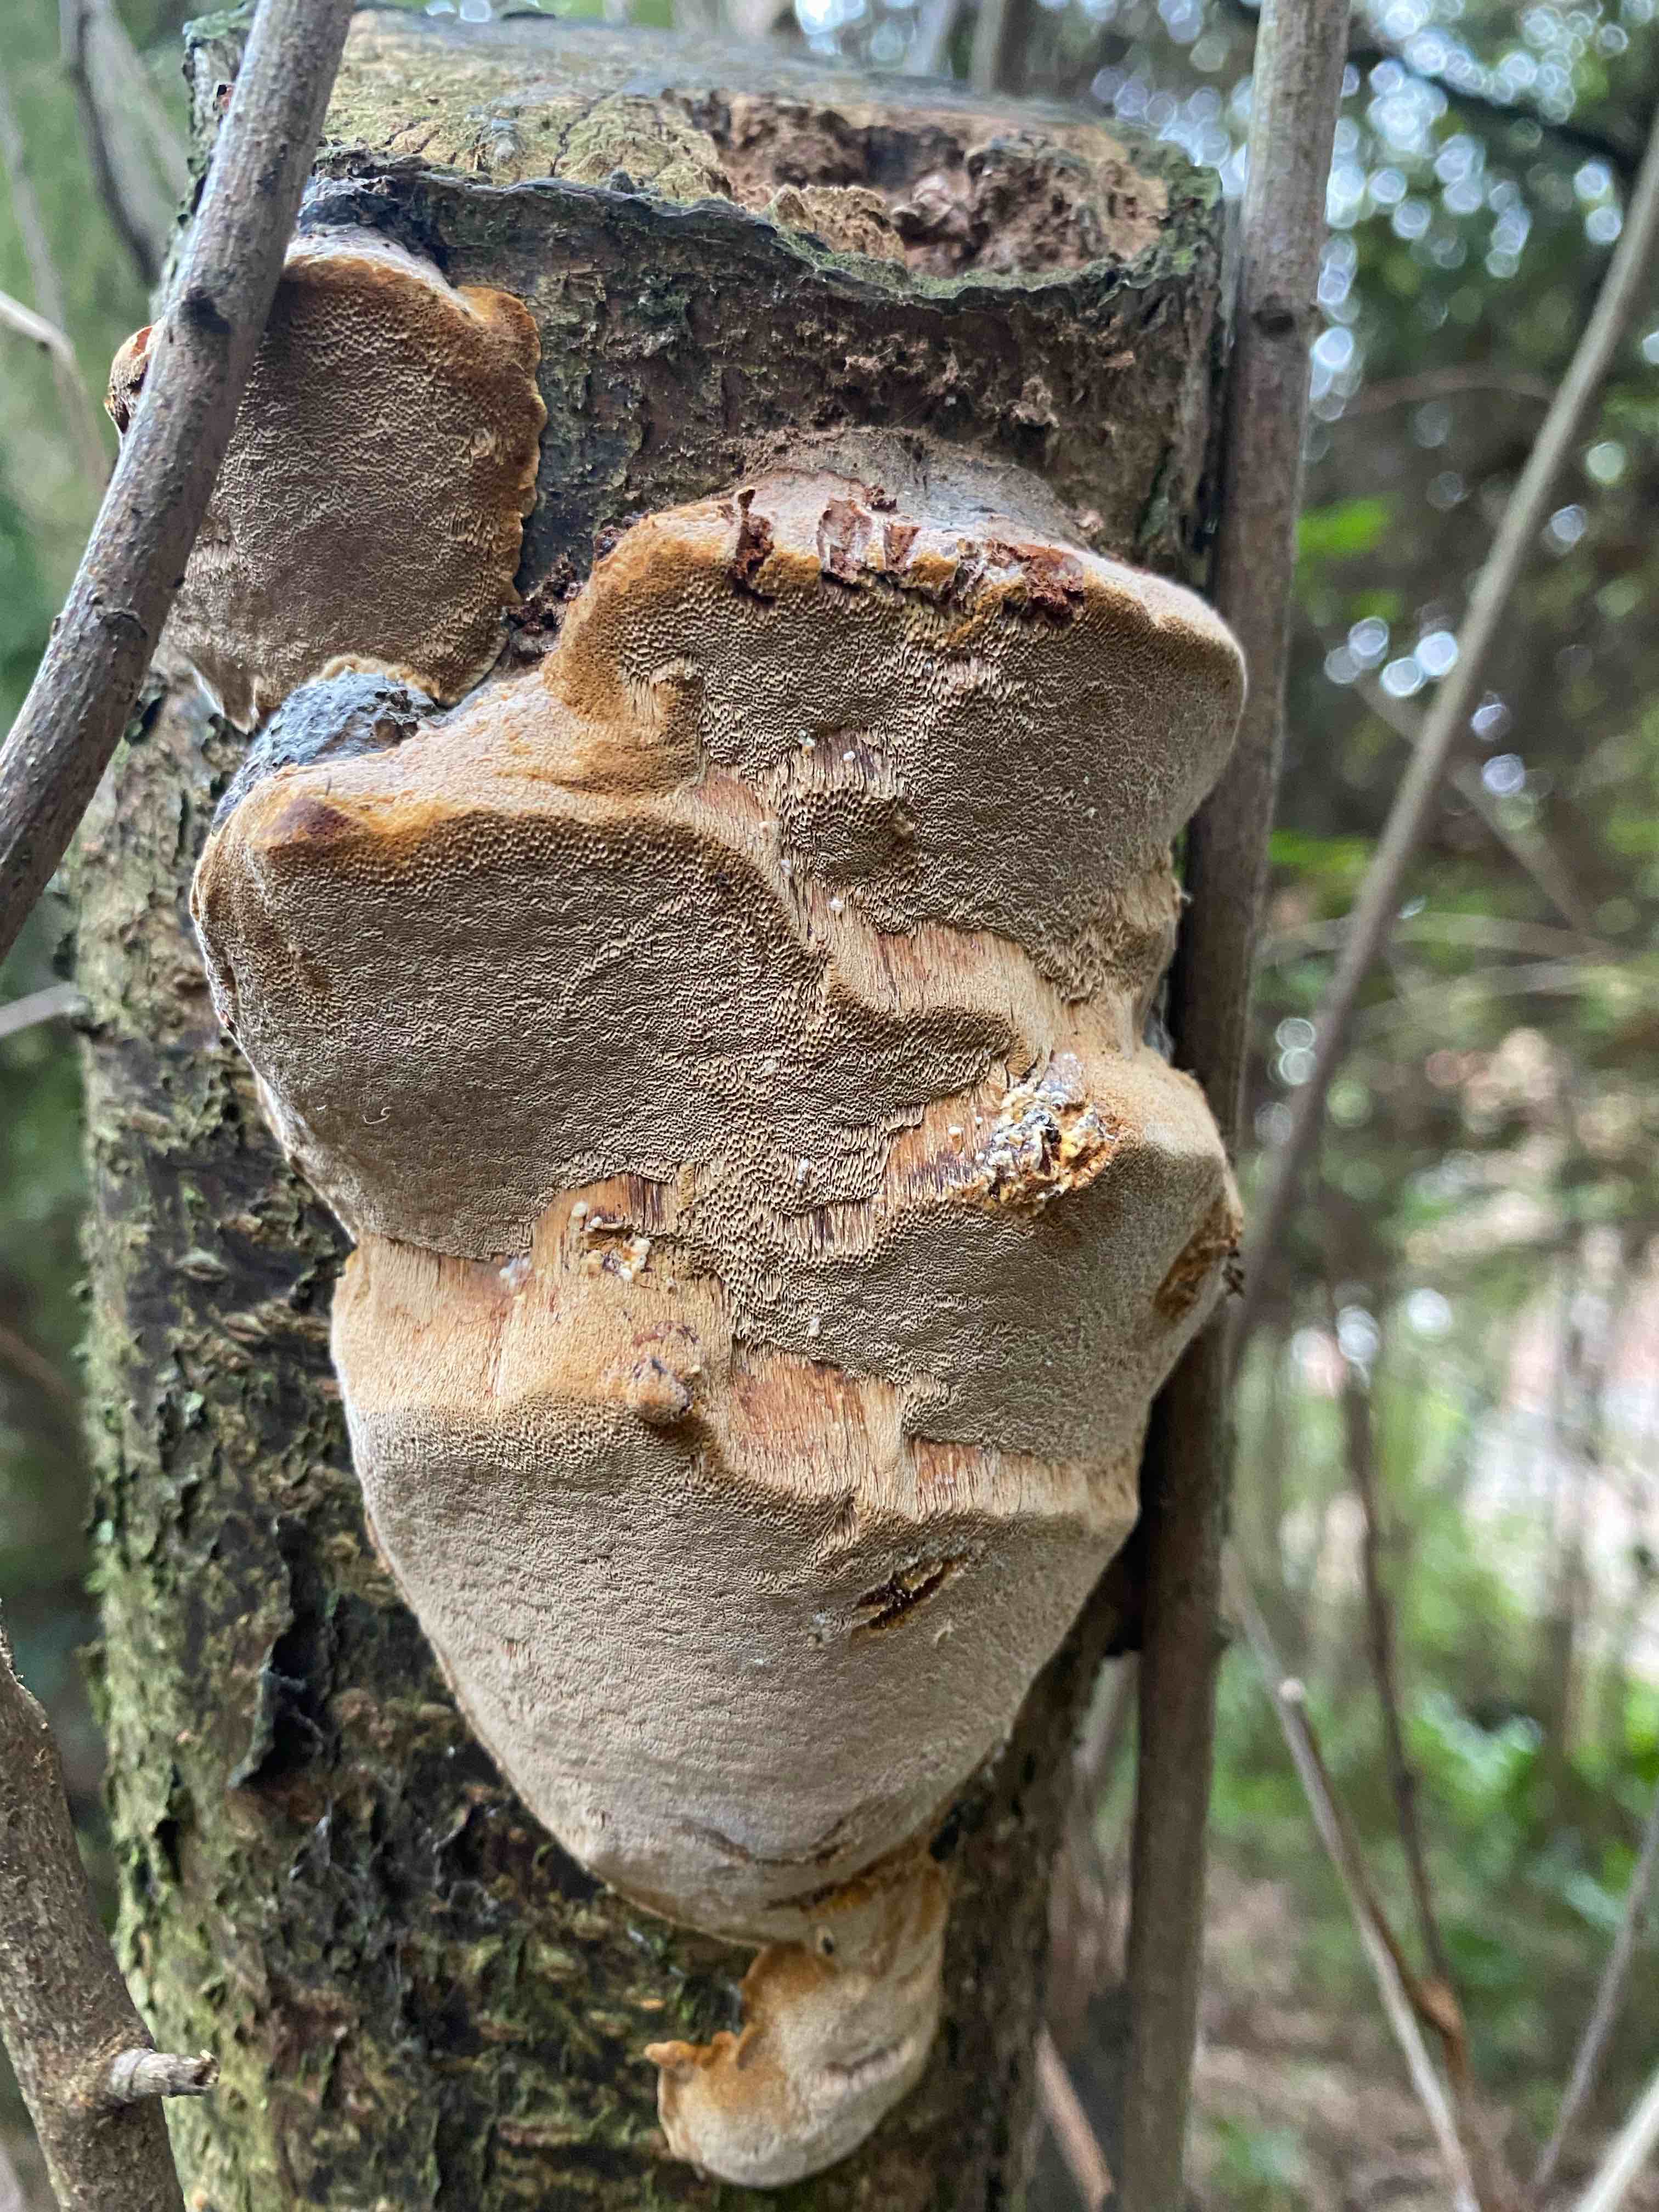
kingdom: Fungi
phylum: Basidiomycota
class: Agaricomycetes
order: Hymenochaetales
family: Hymenochaetaceae
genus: Phellinus
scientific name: Phellinus pomaceus
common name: blomme-ildporesvamp
